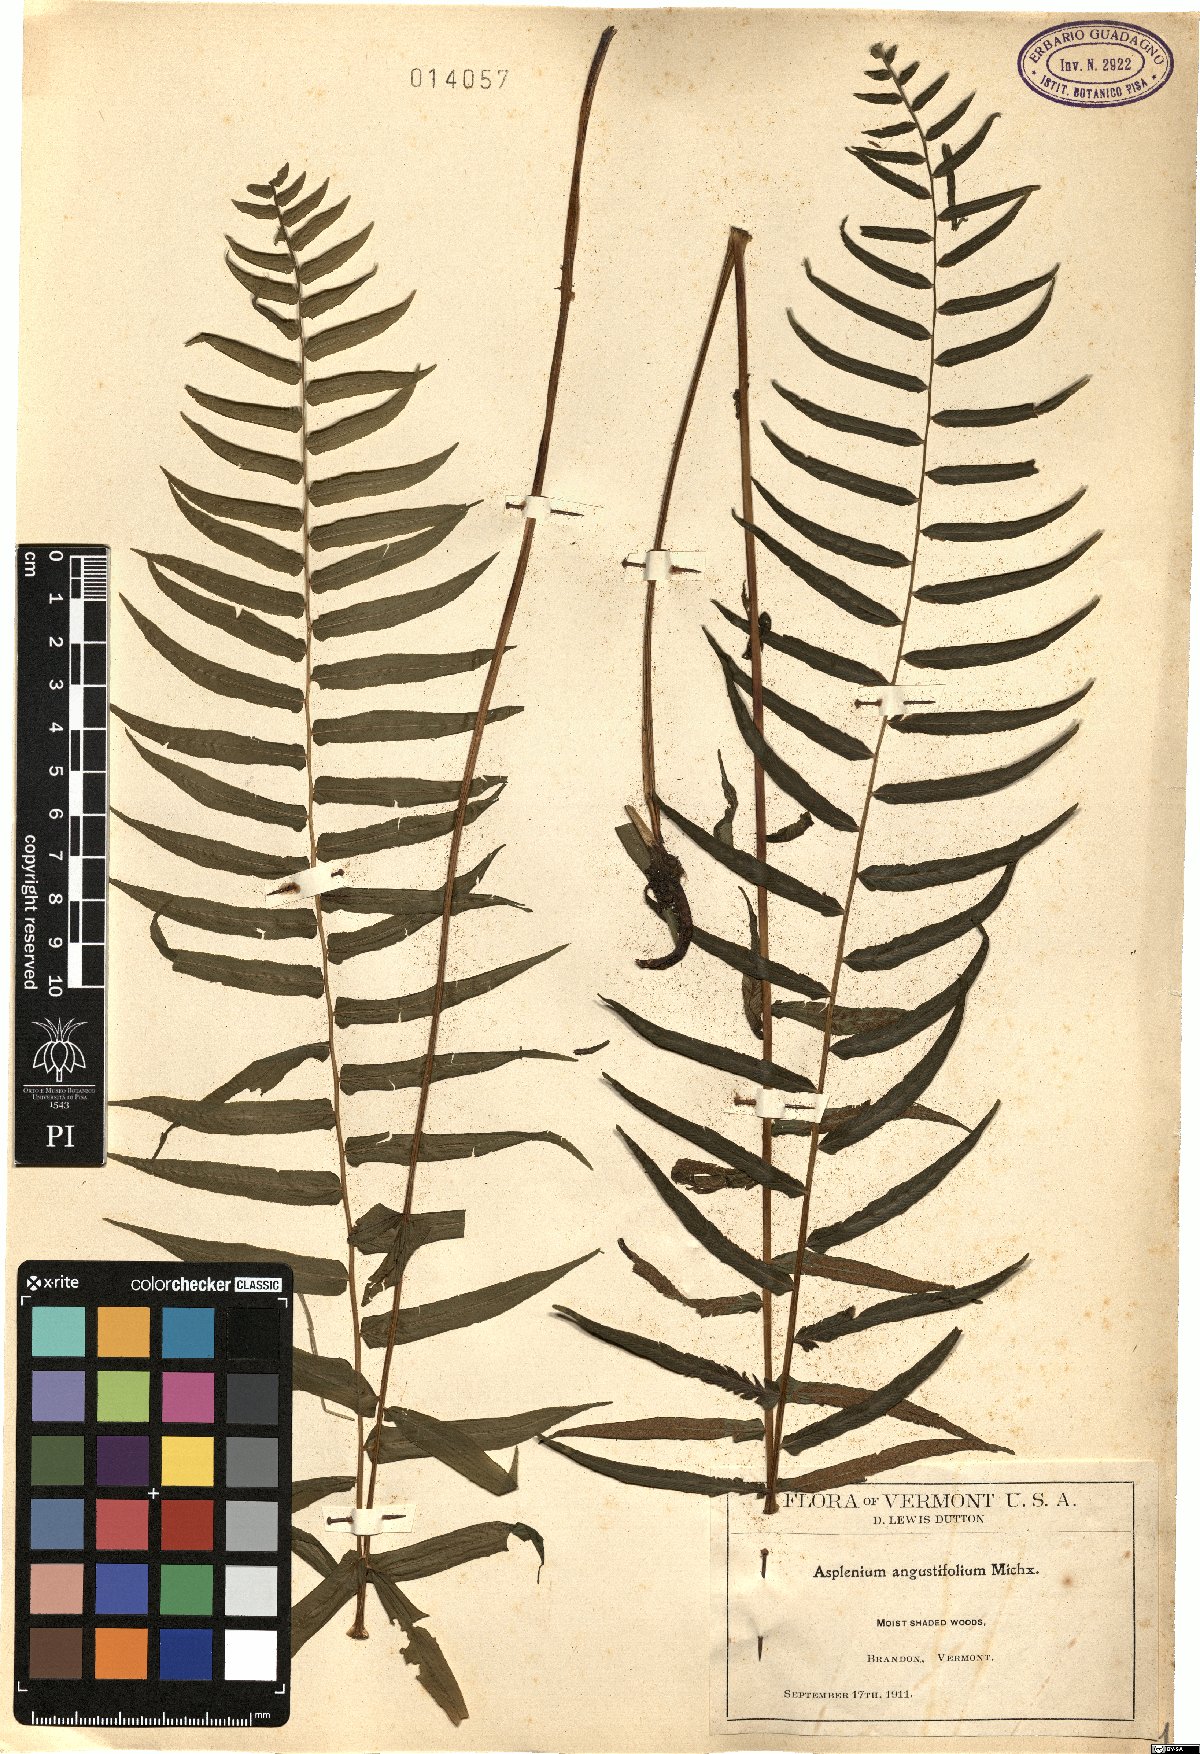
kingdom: Plantae
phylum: Tracheophyta
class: Polypodiopsida
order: Polypodiales
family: Diplaziopsidaceae
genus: Homalosorus
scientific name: Homalosorus pycnocarpos
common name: Glade fern
